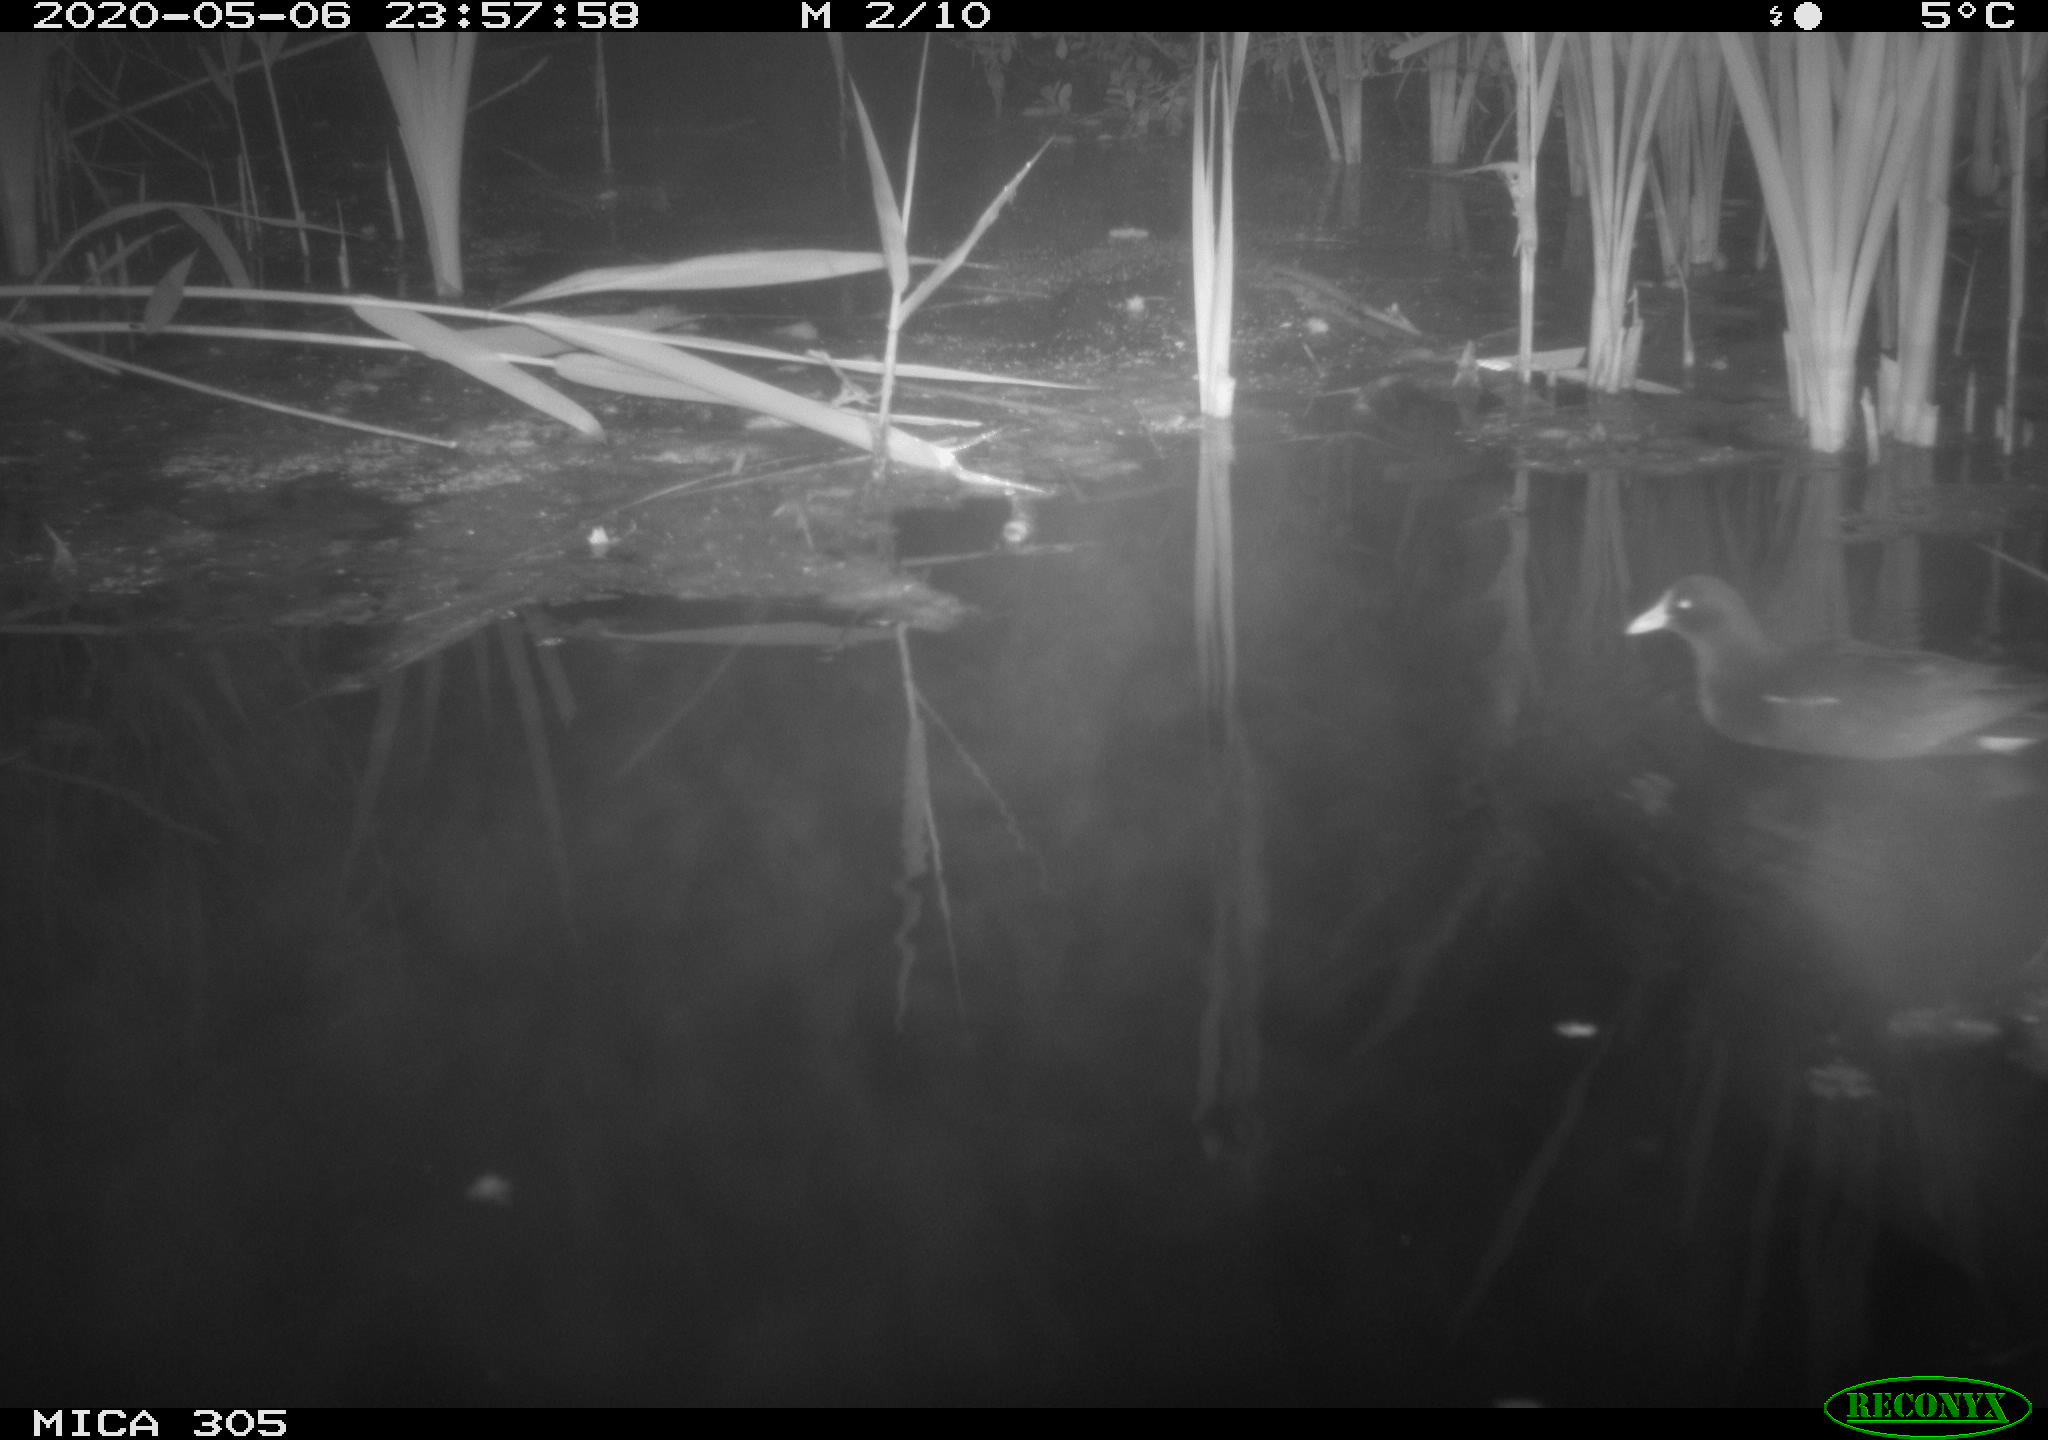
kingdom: Animalia
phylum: Chordata
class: Aves
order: Gruiformes
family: Rallidae
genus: Gallinula
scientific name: Gallinula chloropus
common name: Common moorhen
